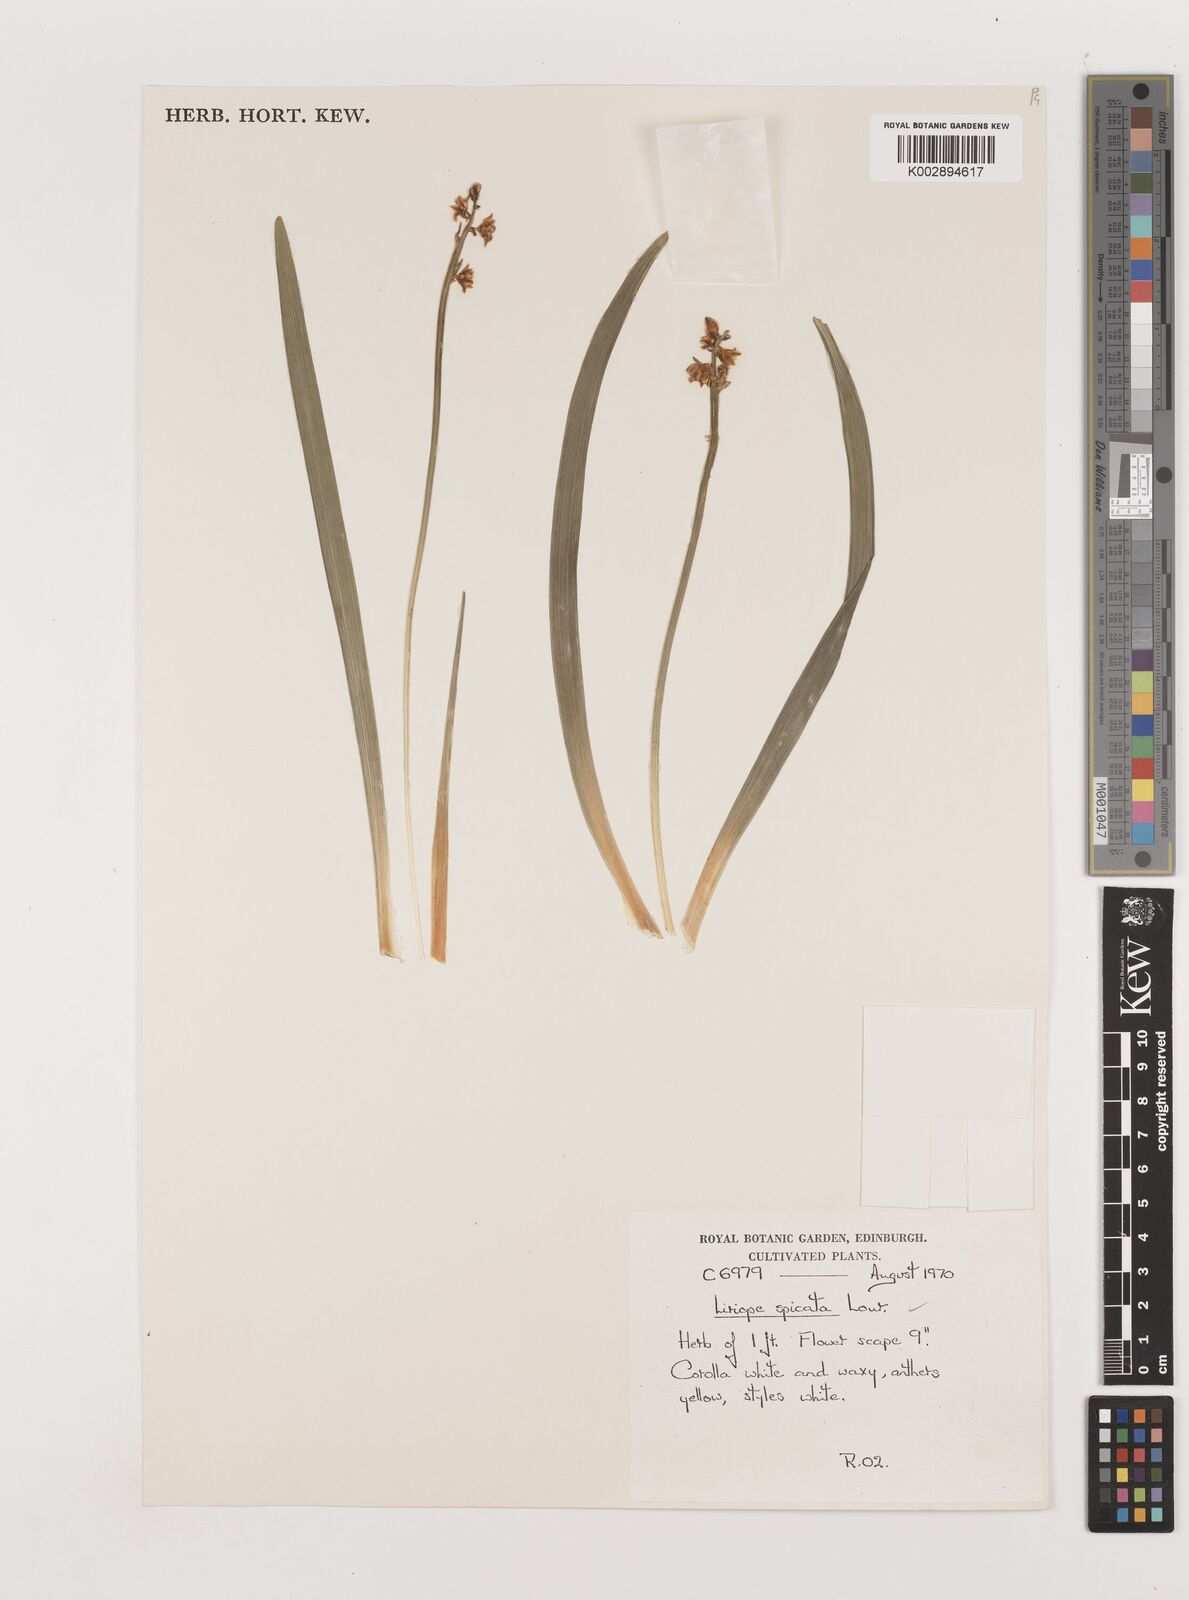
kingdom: Plantae
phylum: Tracheophyta
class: Liliopsida
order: Asparagales
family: Asparagaceae
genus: Liriope
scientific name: Liriope spicata
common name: Creeping liriope
